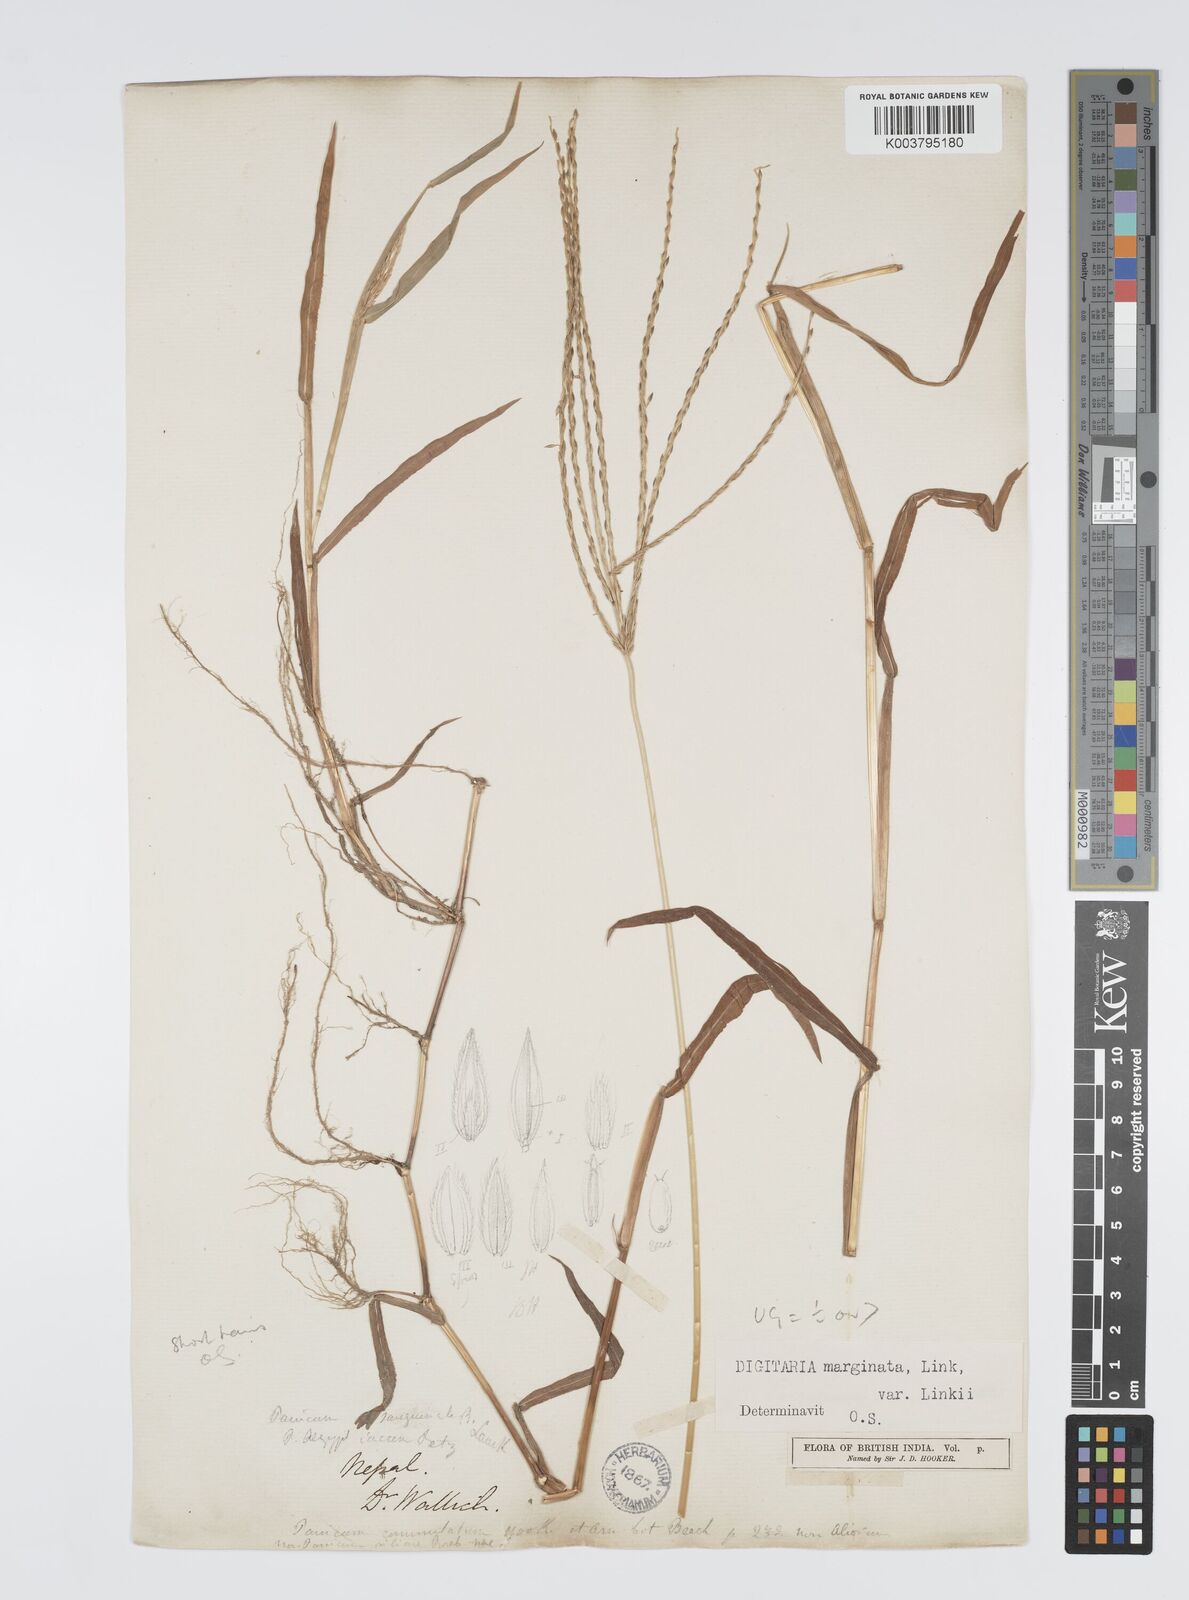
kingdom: Plantae
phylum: Tracheophyta
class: Liliopsida
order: Poales
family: Poaceae
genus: Digitaria
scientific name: Digitaria ciliaris
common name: Tropical finger-grass
